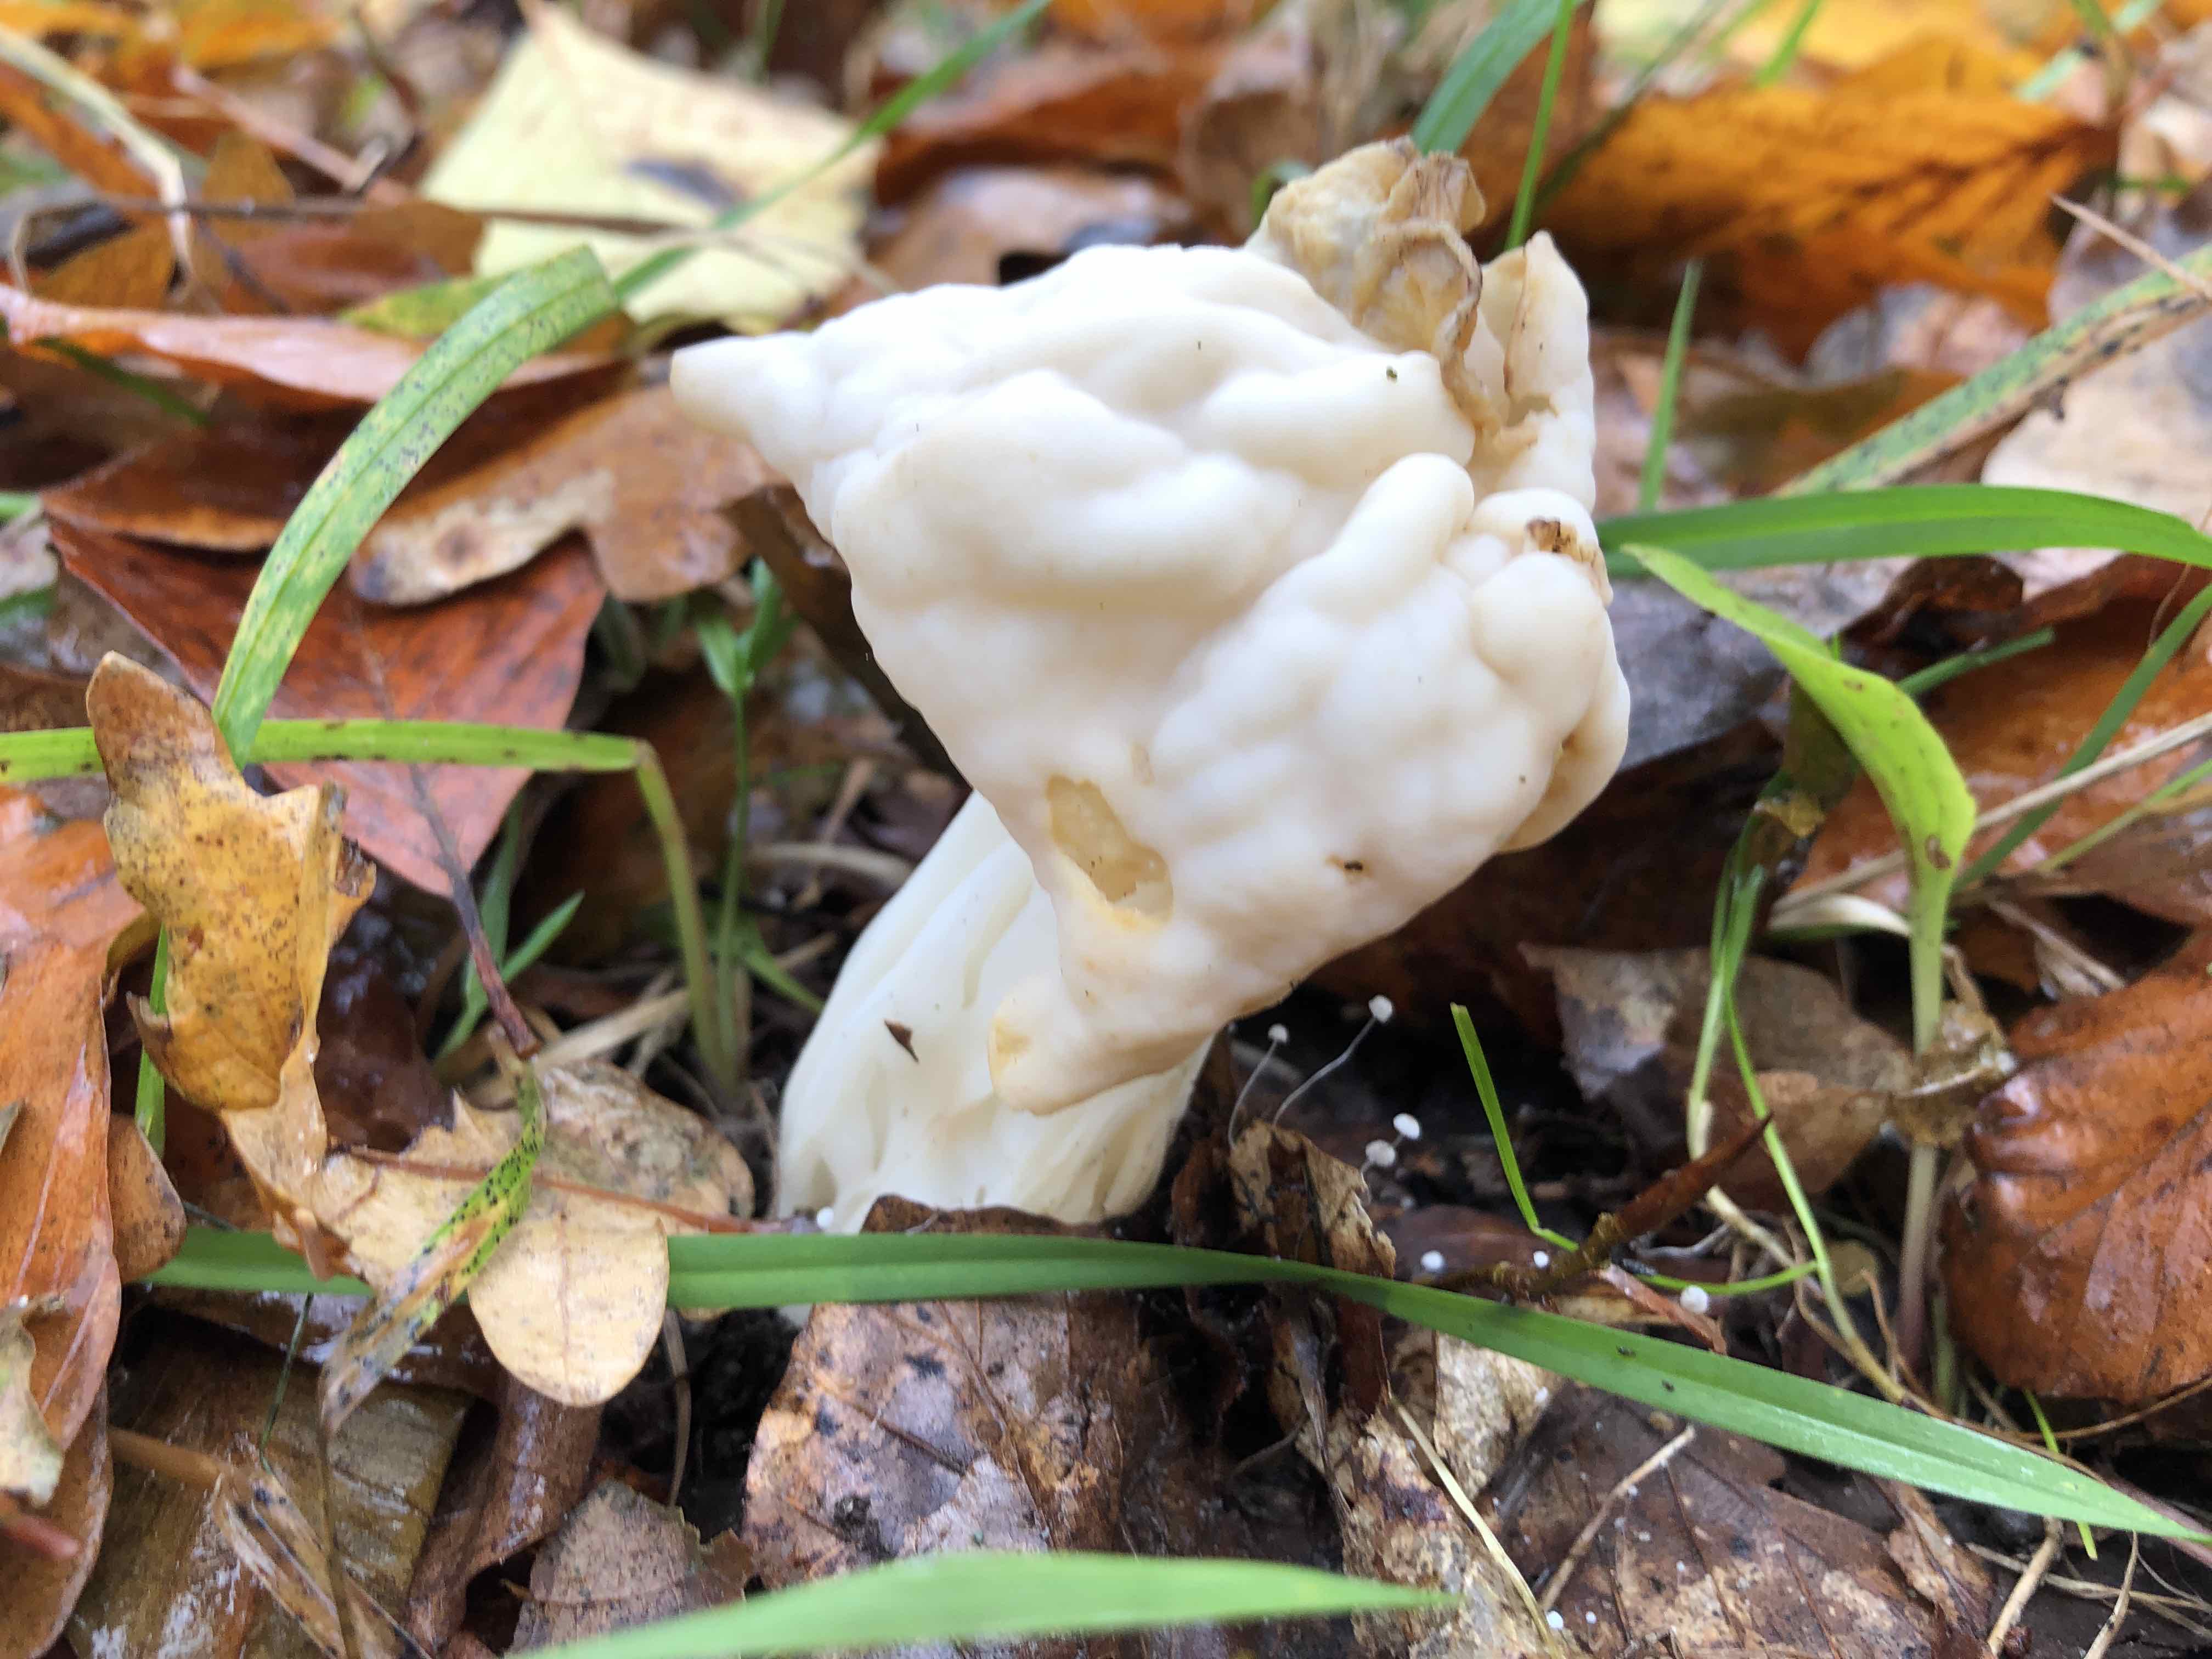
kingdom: Fungi
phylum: Ascomycota
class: Pezizomycetes
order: Pezizales
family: Helvellaceae
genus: Helvella
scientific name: Helvella crispa
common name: kruset foldhat
